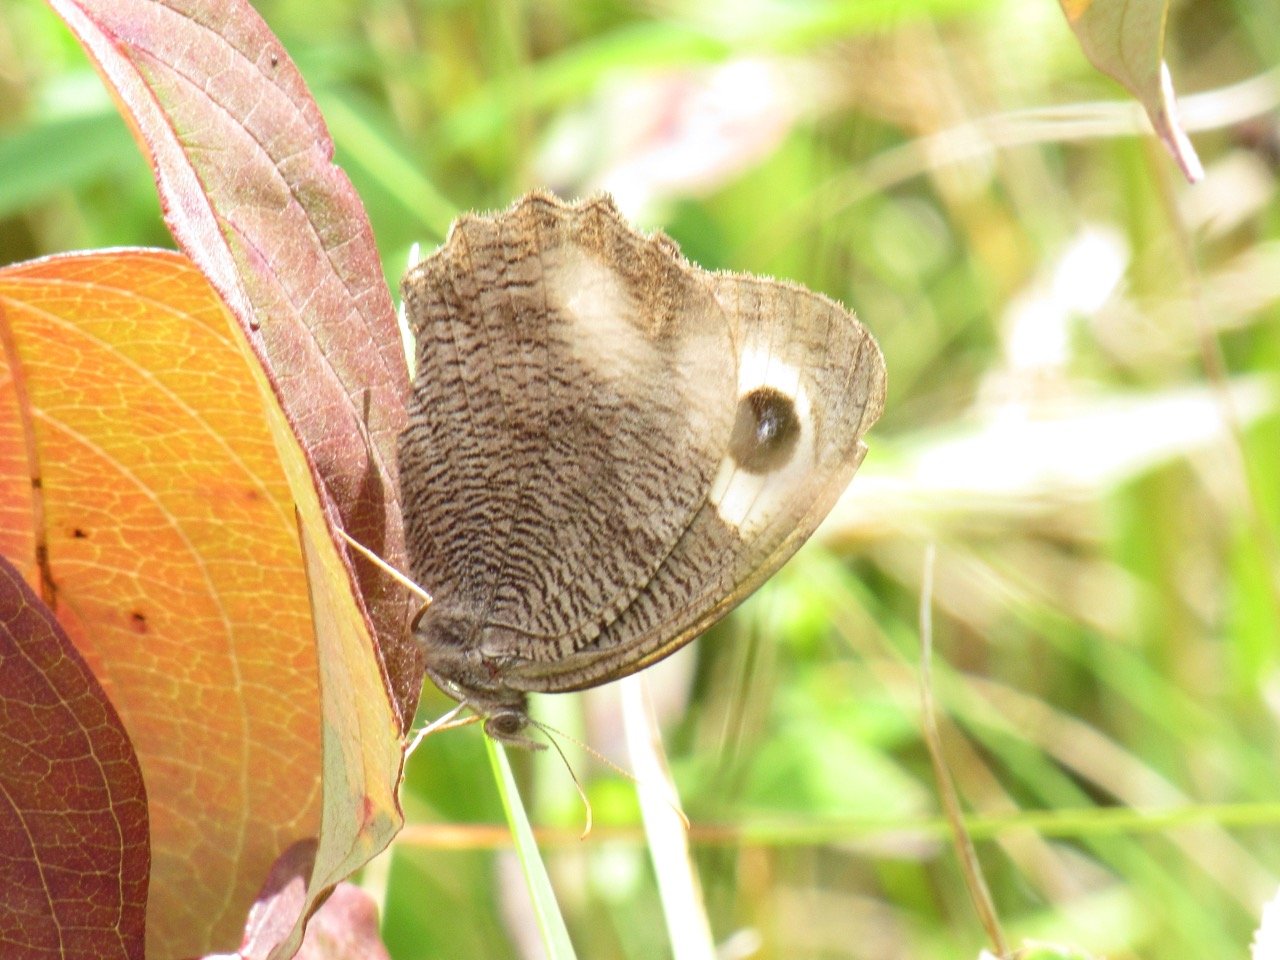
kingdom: Animalia
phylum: Arthropoda
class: Insecta
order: Lepidoptera
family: Nymphalidae
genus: Cercyonis
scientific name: Cercyonis pegala
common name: Common Wood-Nymph
